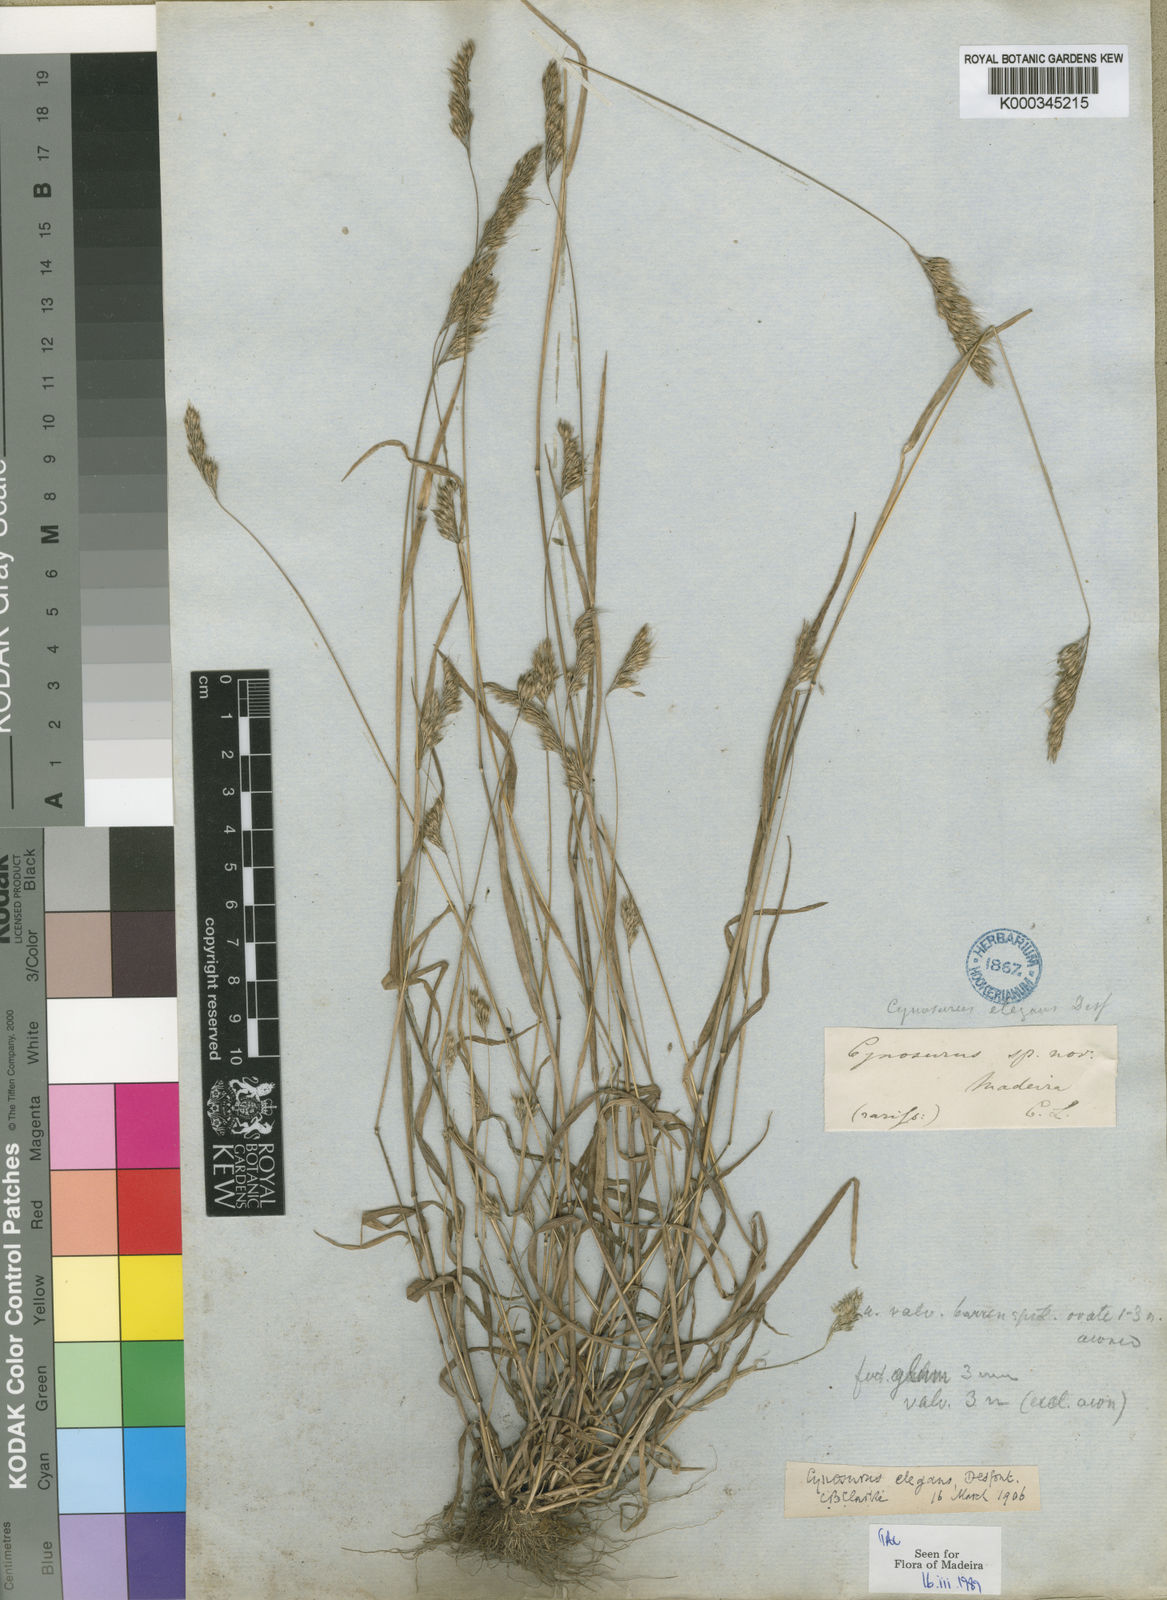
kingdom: Plantae
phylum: Tracheophyta
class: Liliopsida
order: Poales
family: Poaceae
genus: Cynosurus
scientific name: Cynosurus elegans
